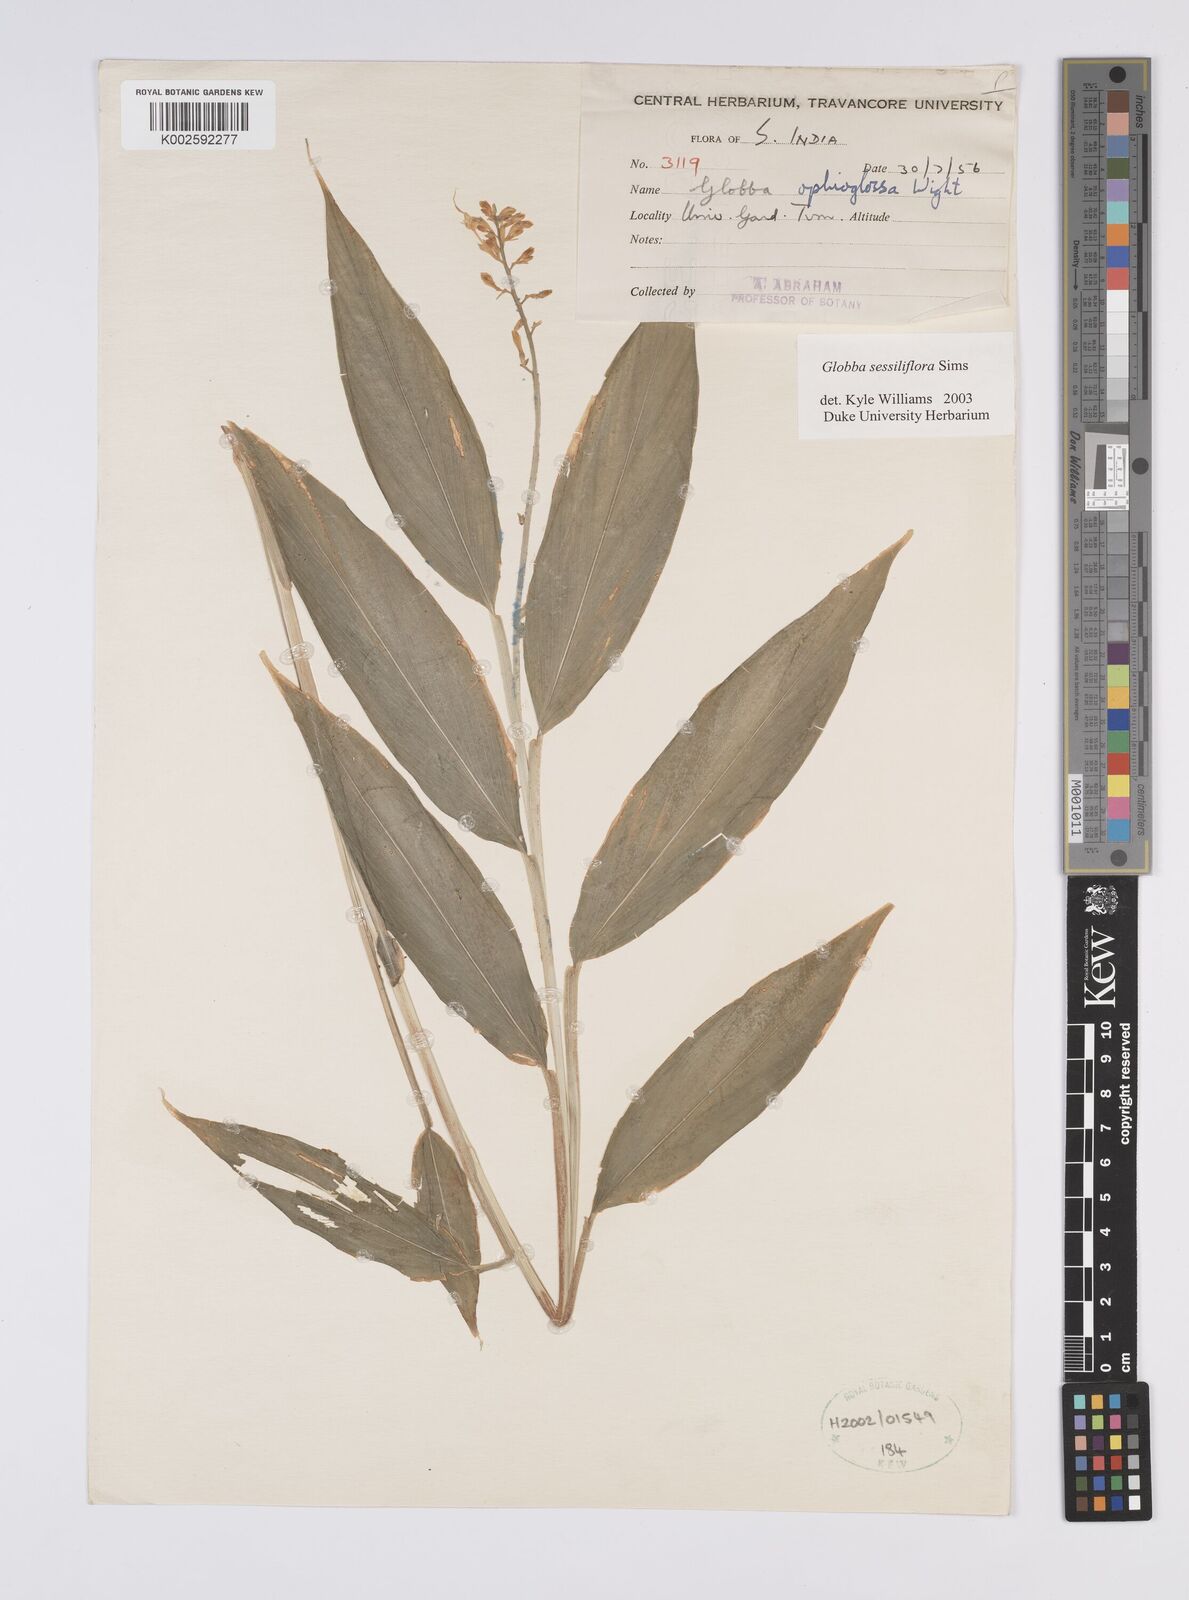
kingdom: Plantae
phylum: Tracheophyta
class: Liliopsida
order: Zingiberales
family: Zingiberaceae
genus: Globba
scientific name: Globba sessiliflora
